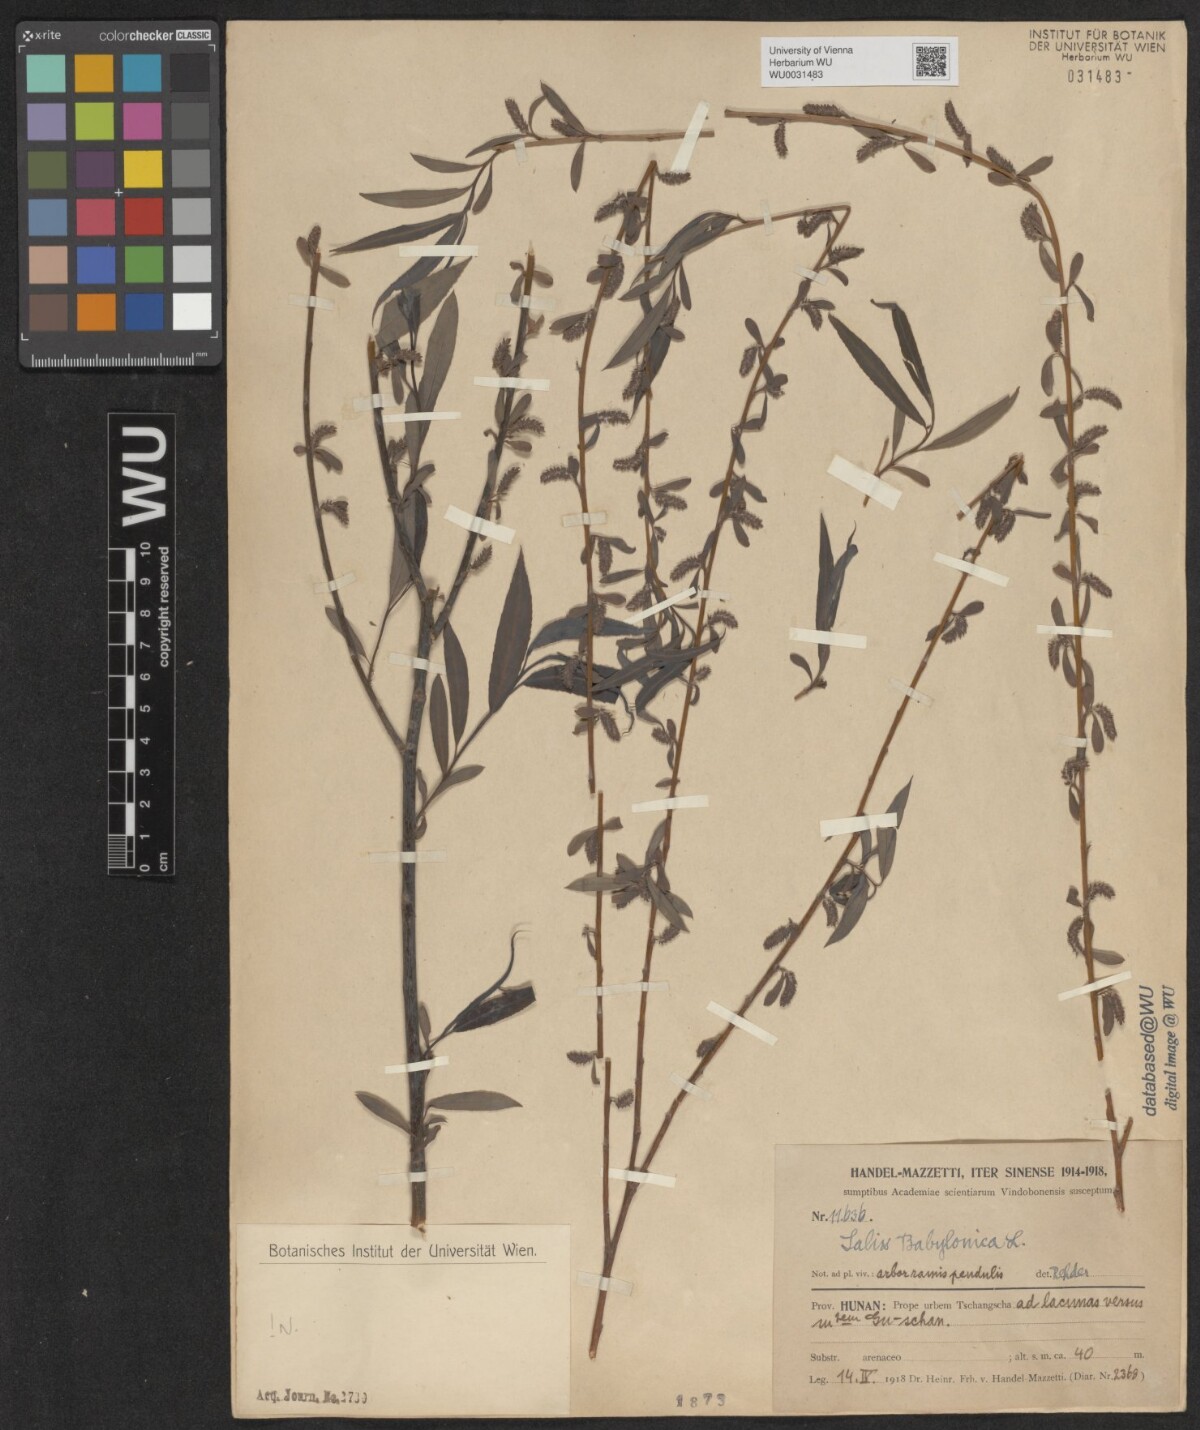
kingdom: Plantae
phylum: Tracheophyta
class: Magnoliopsida
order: Malpighiales
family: Salicaceae
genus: Salix
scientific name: Salix babylonica
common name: Weeping willow
